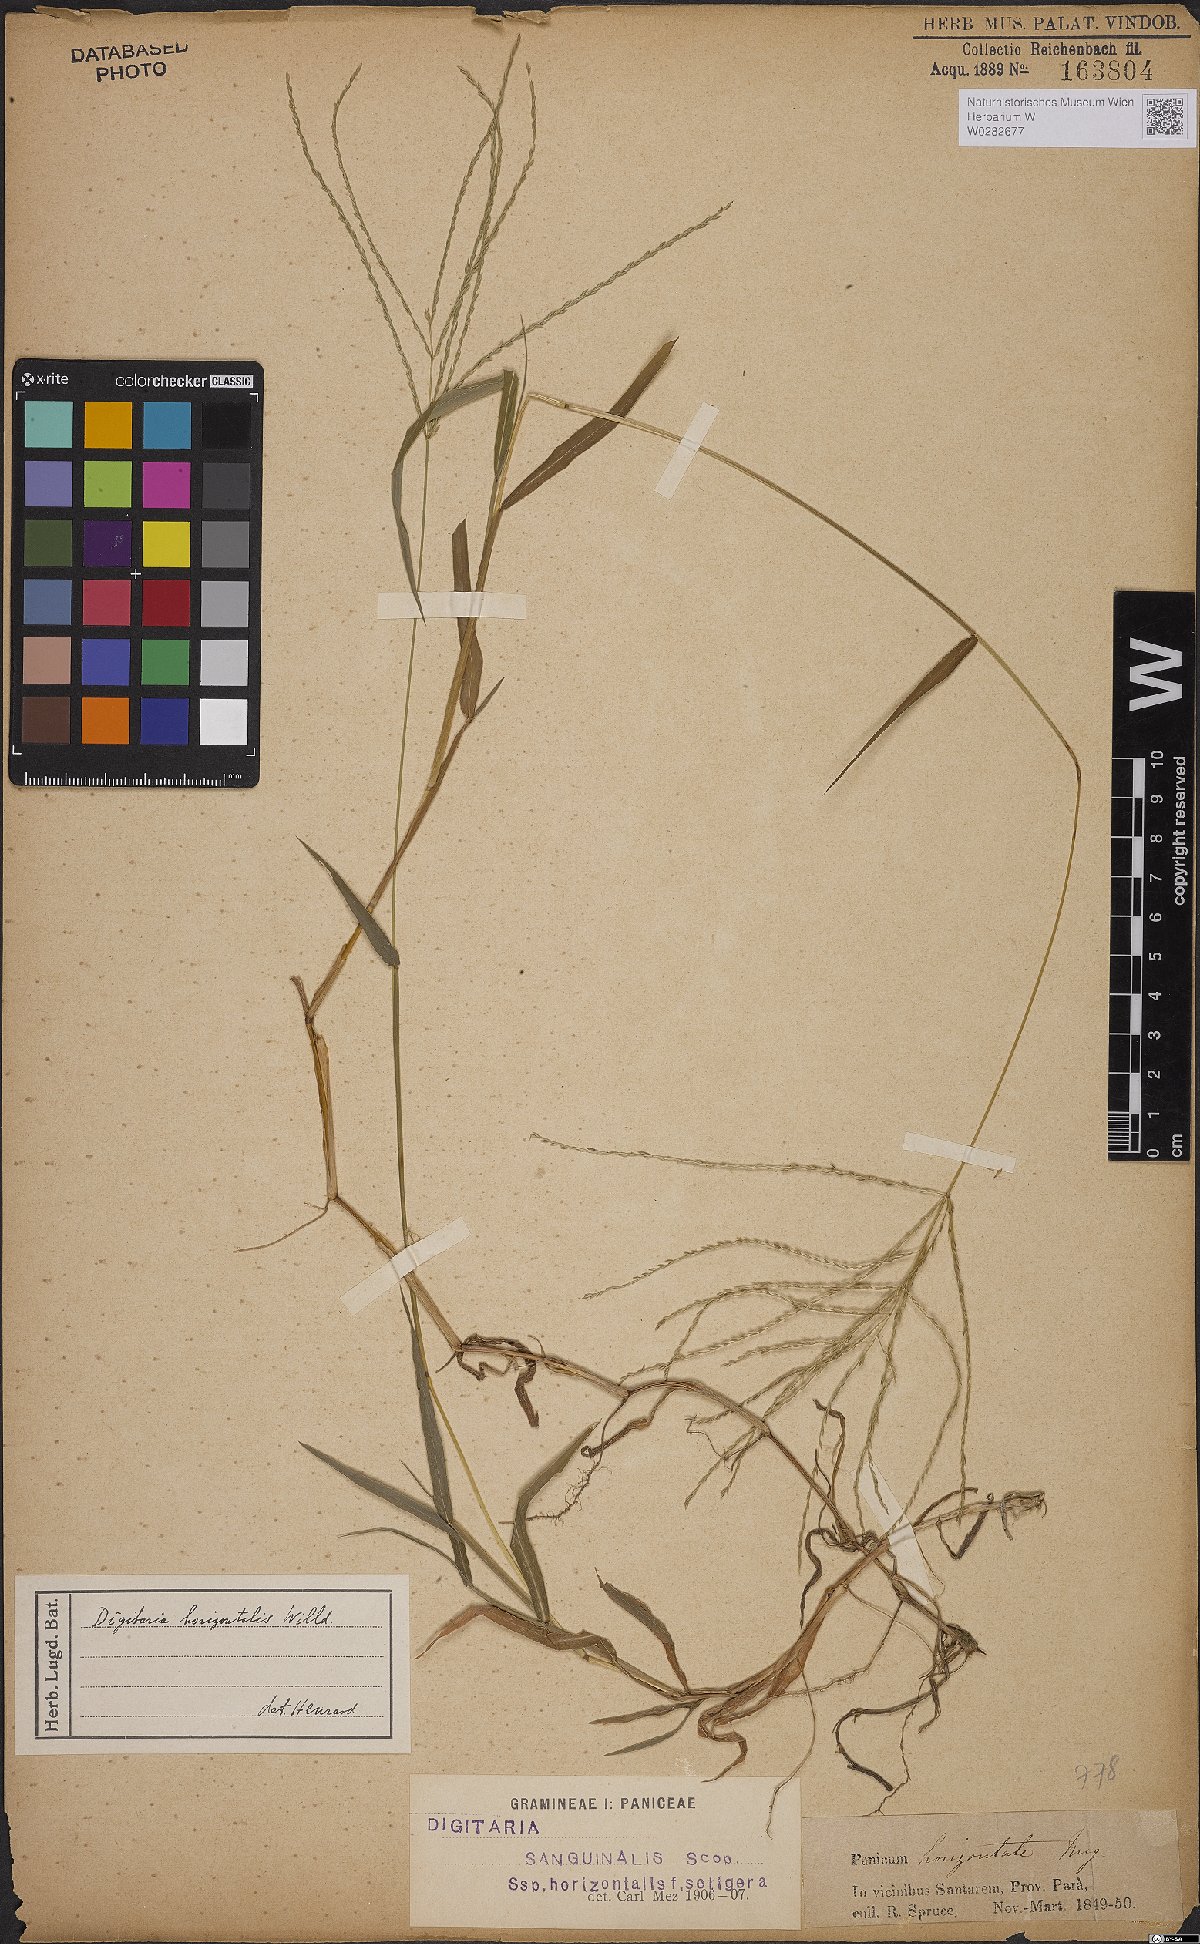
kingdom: Plantae
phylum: Tracheophyta
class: Liliopsida
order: Poales
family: Poaceae
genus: Digitaria
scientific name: Digitaria horizontalis
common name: Jamaican crabgrass
